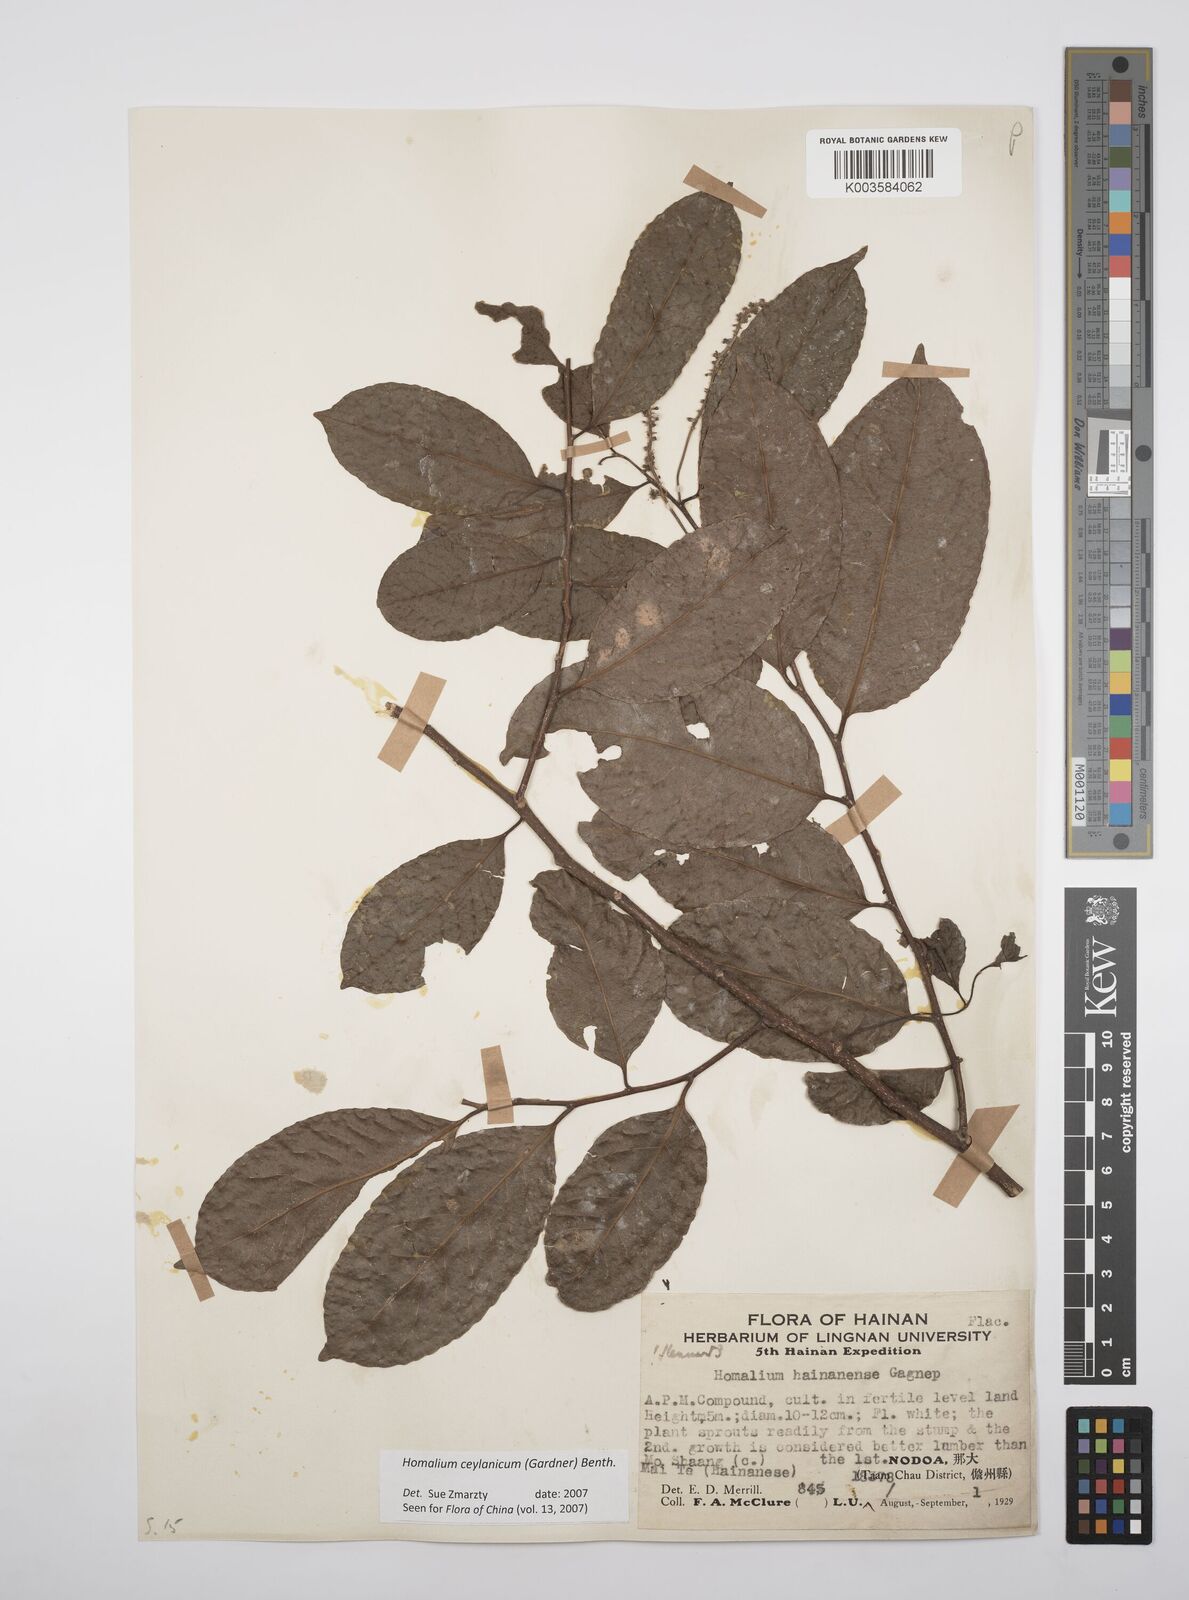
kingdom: Plantae
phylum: Tracheophyta
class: Magnoliopsida
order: Malpighiales
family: Salicaceae
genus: Homalium
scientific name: Homalium ceylanicum
